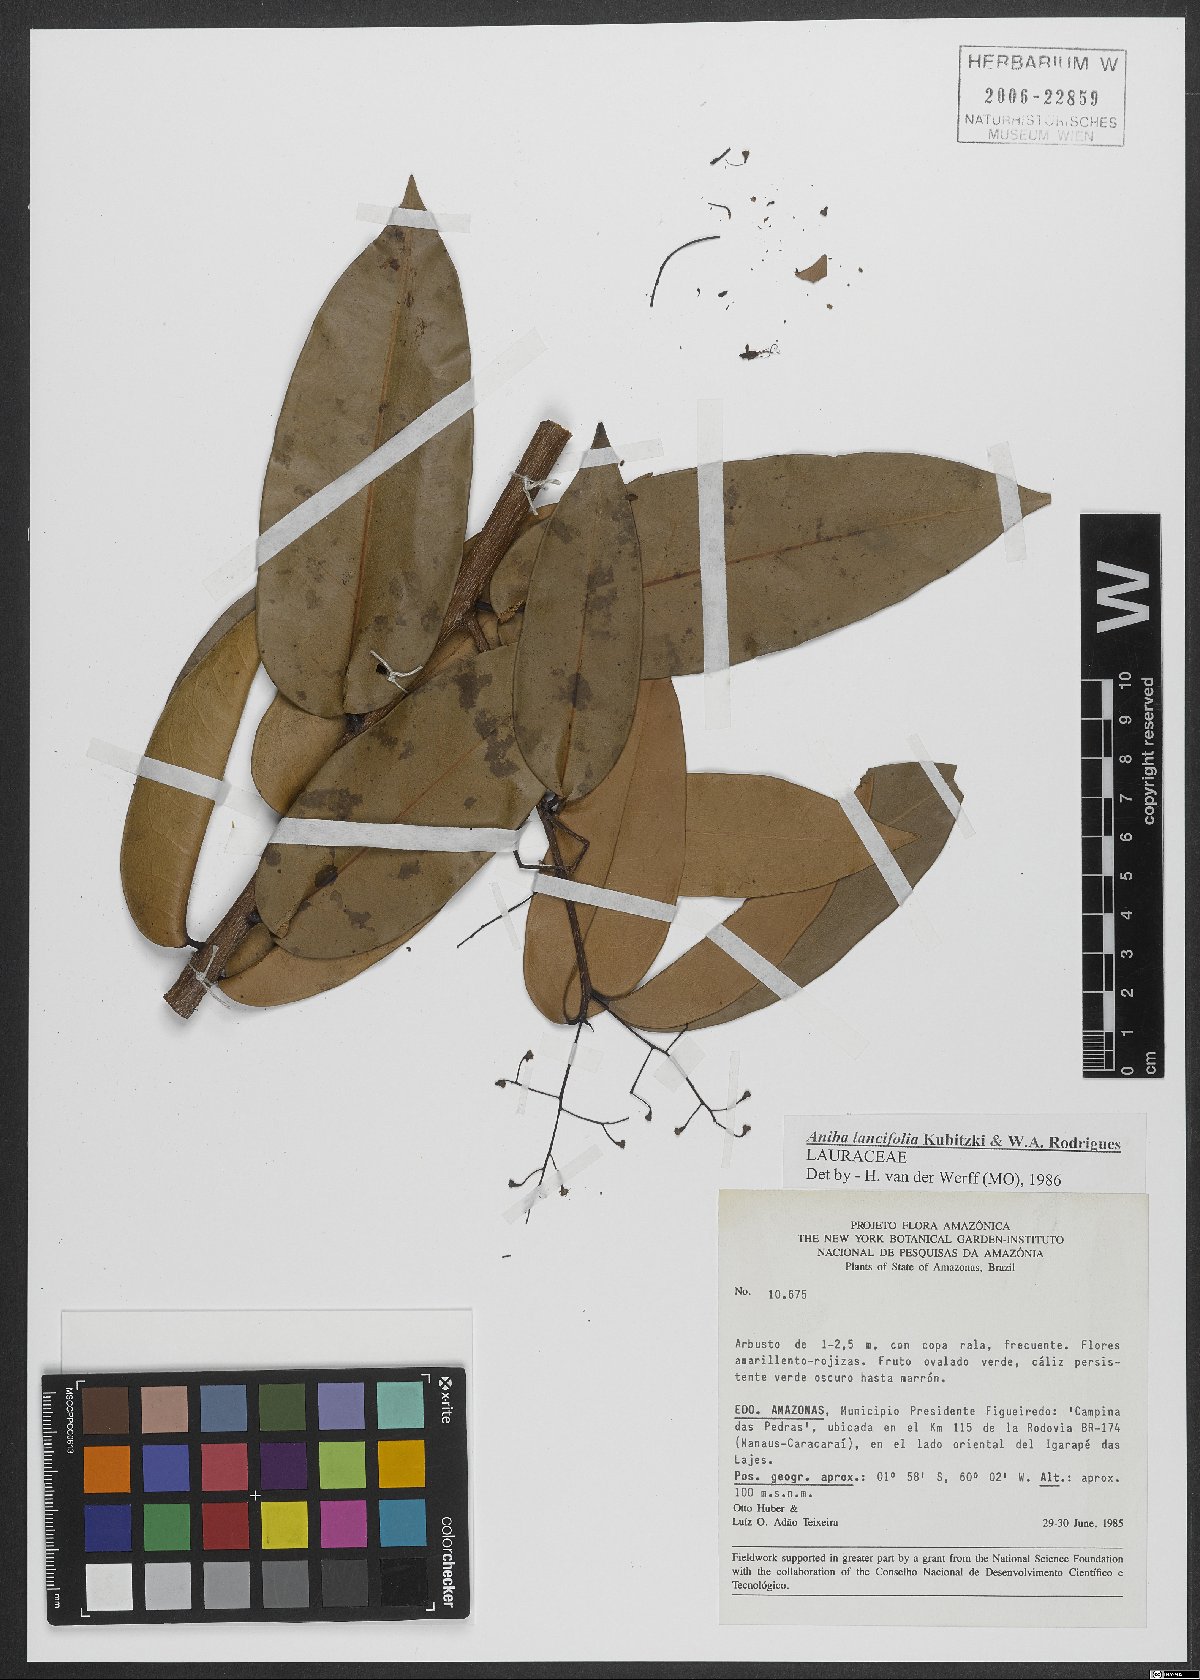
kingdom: Plantae
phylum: Tracheophyta
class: Magnoliopsida
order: Laurales
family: Lauraceae
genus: Aniba
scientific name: Aniba lancifolia
